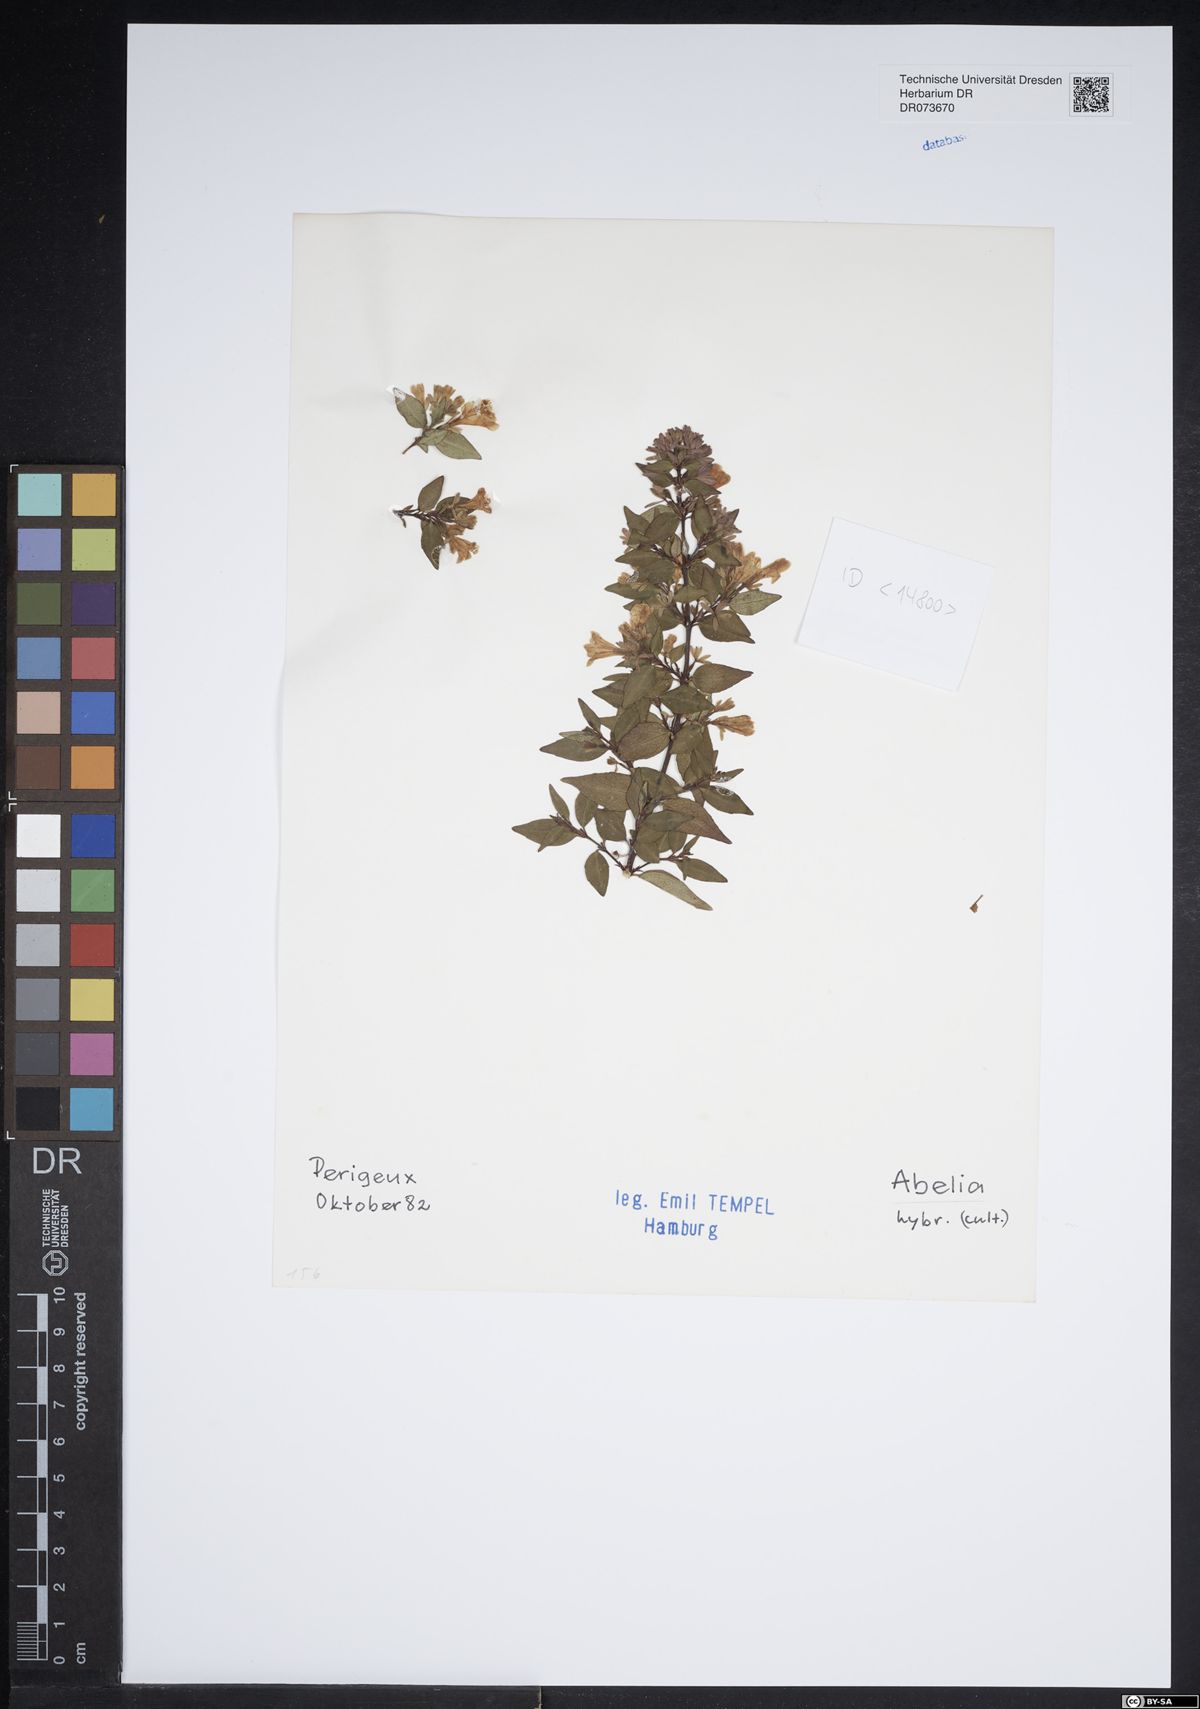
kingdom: Plantae
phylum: Tracheophyta
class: Magnoliopsida
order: Dipsacales
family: Caprifoliaceae
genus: Abelia
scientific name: Abelia
